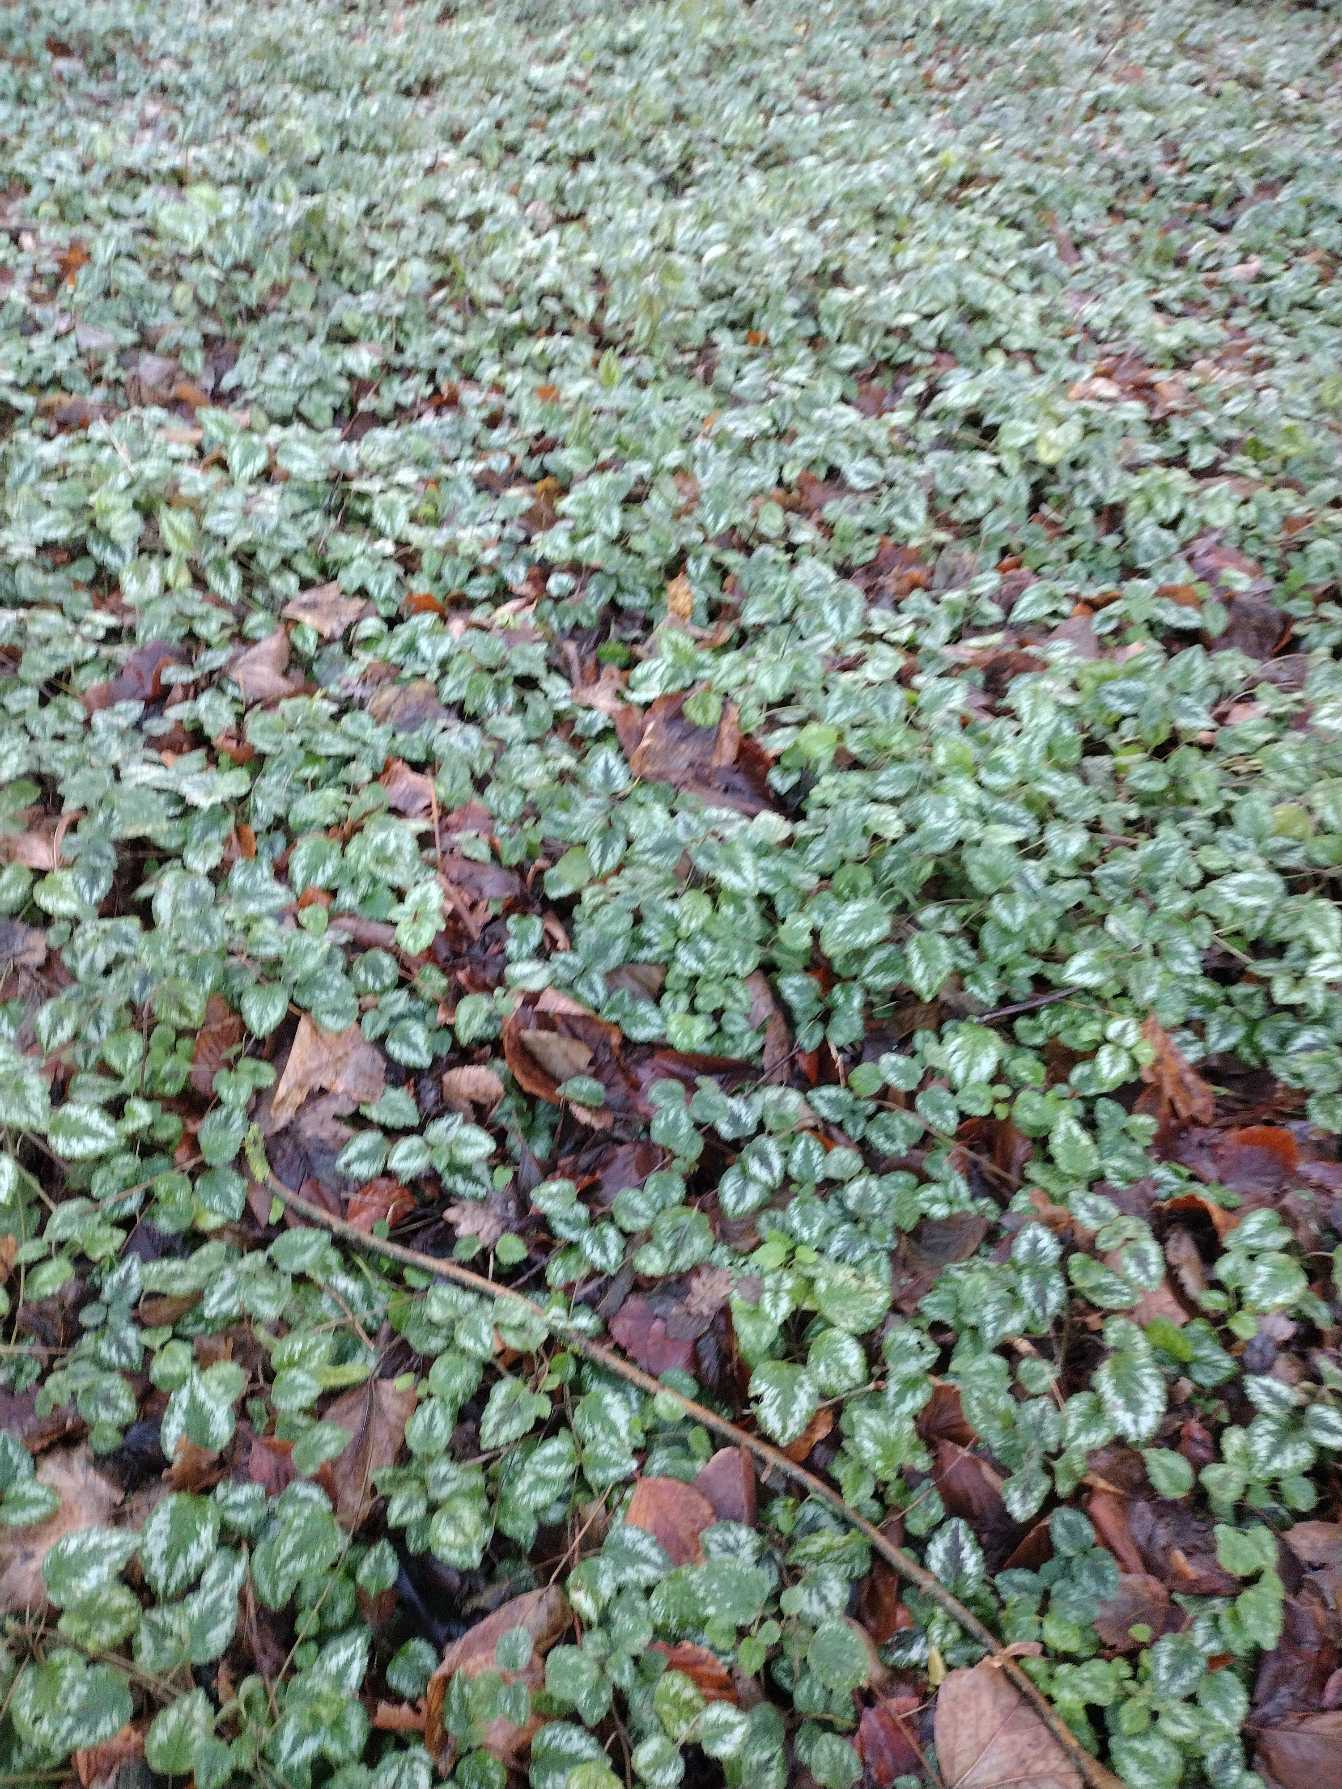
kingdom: Plantae
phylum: Tracheophyta
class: Magnoliopsida
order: Lamiales
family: Lamiaceae
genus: Lamium
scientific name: Lamium galeobdolon
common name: Have-guldnælde
